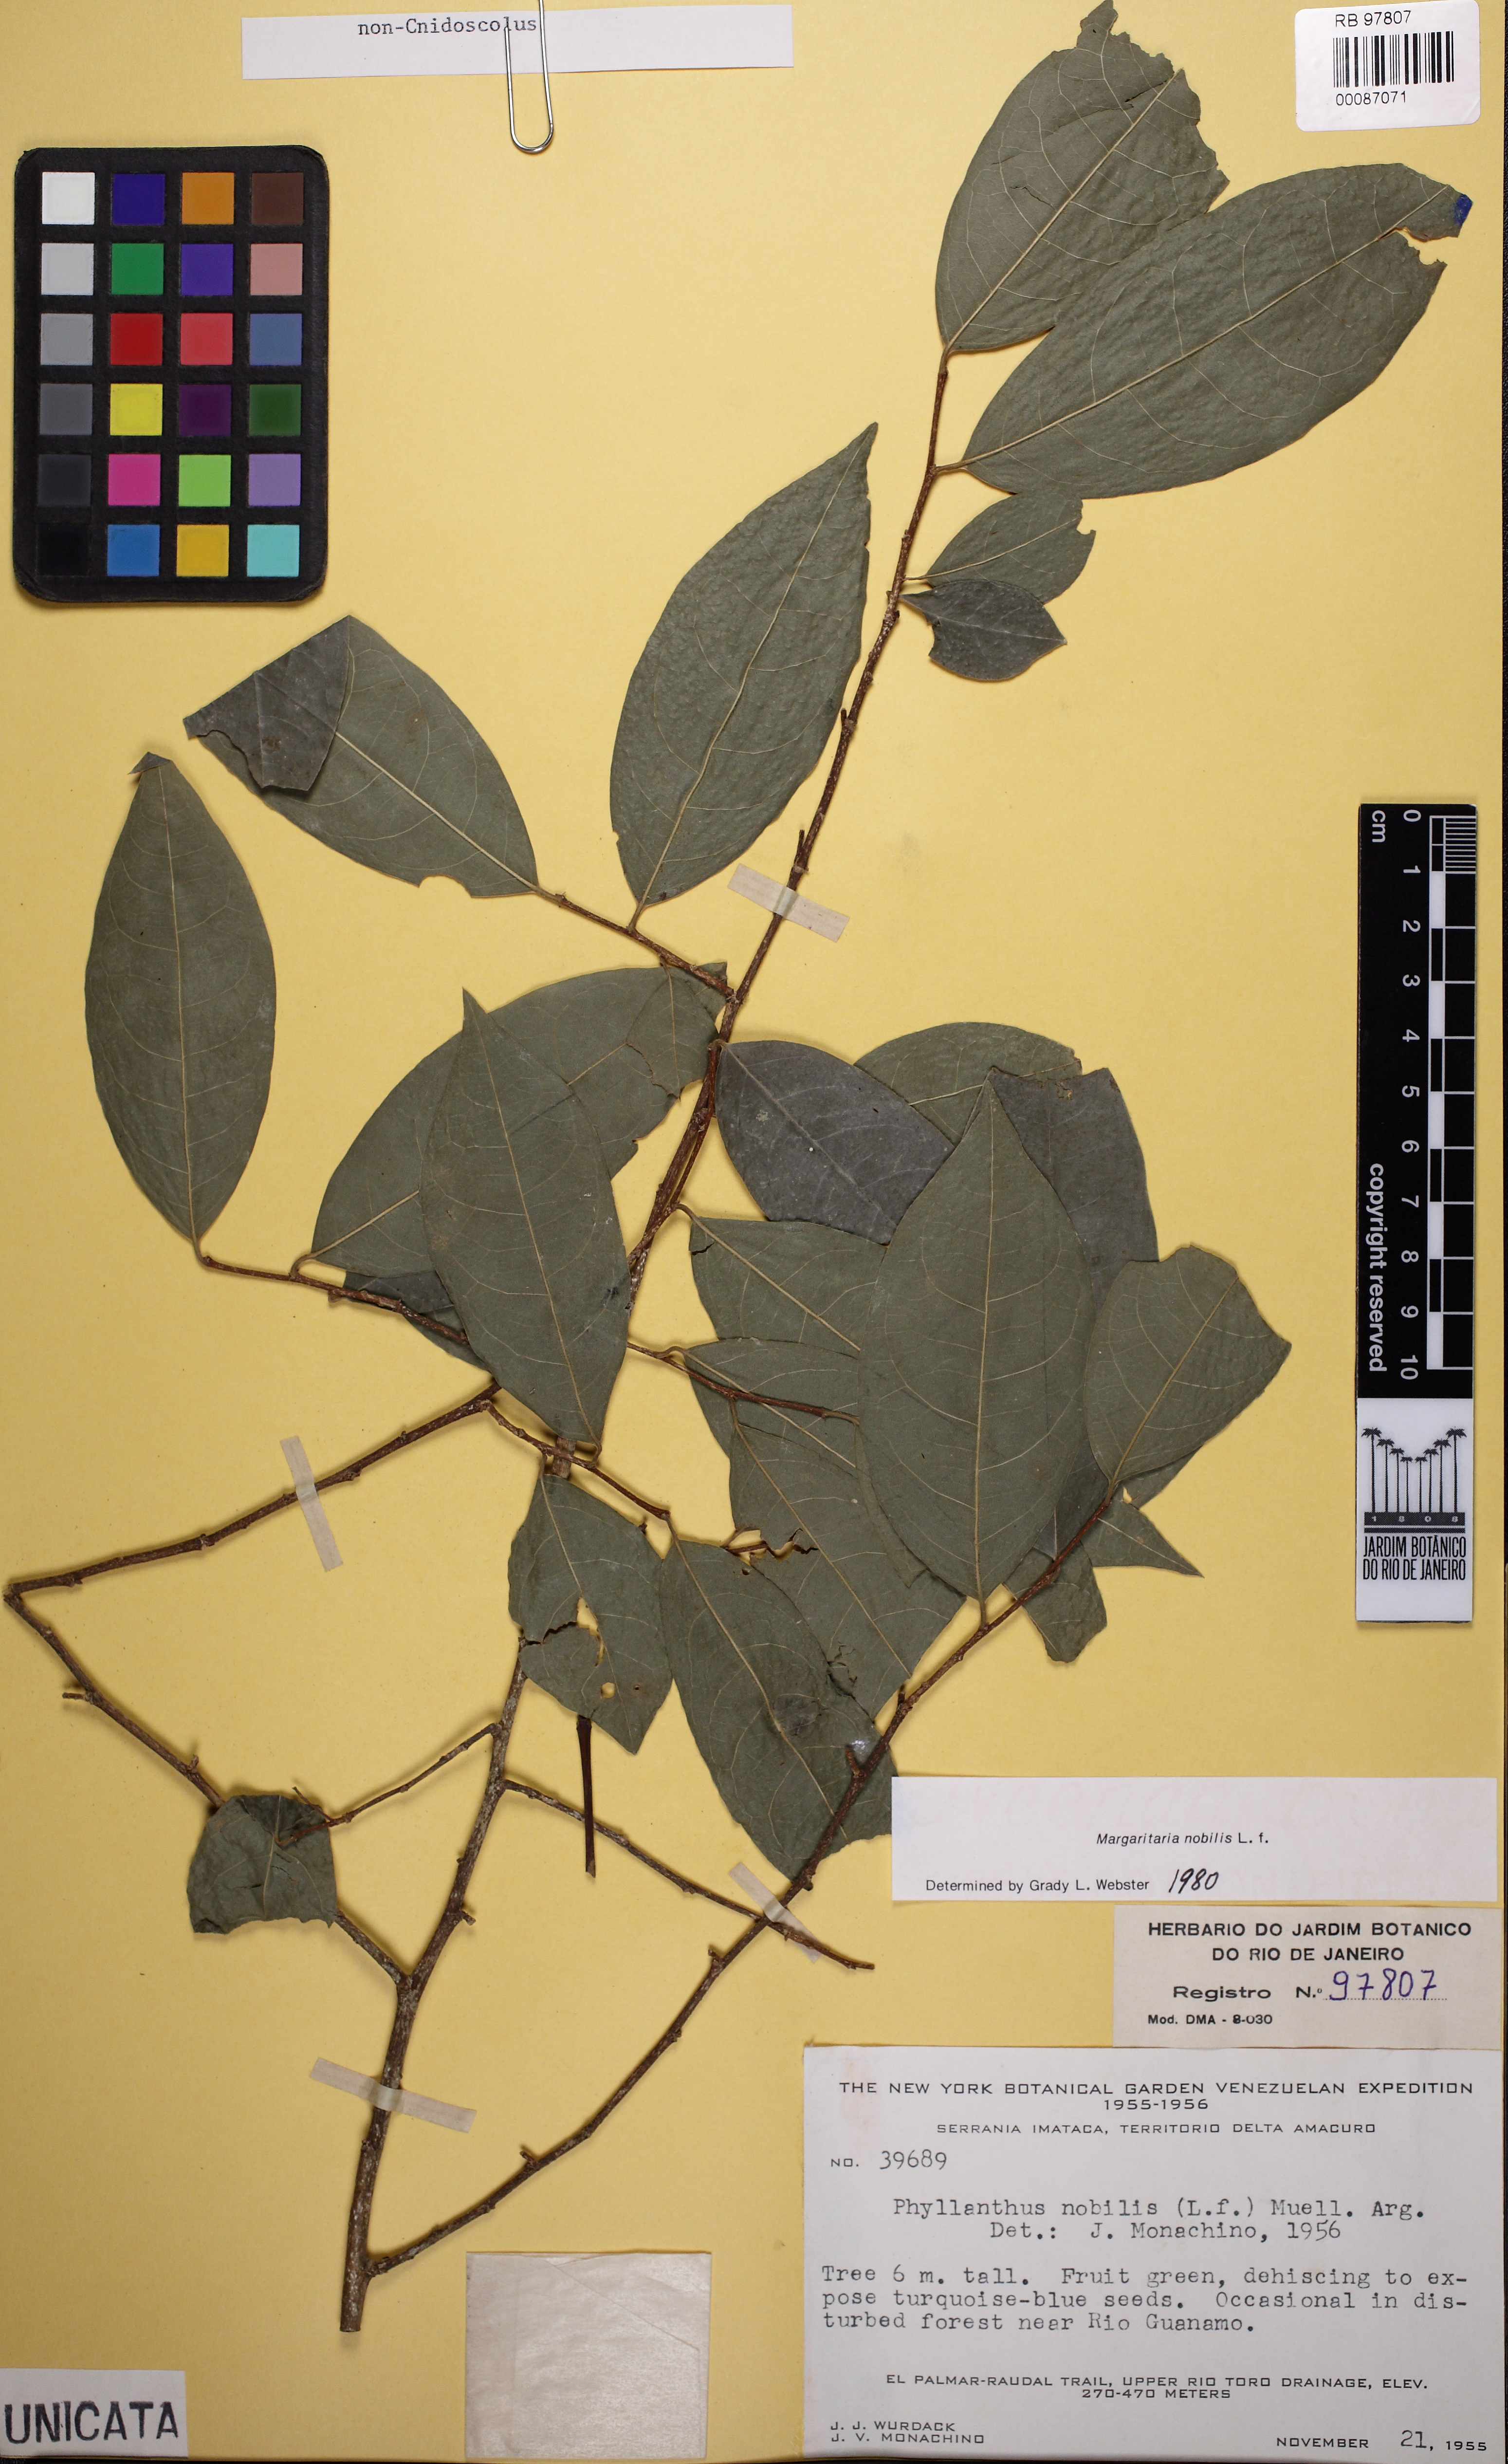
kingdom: Plantae
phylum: Tracheophyta
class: Magnoliopsida
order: Malpighiales
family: Phyllanthaceae
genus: Margaritaria
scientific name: Margaritaria nobilis
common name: Goose berry
